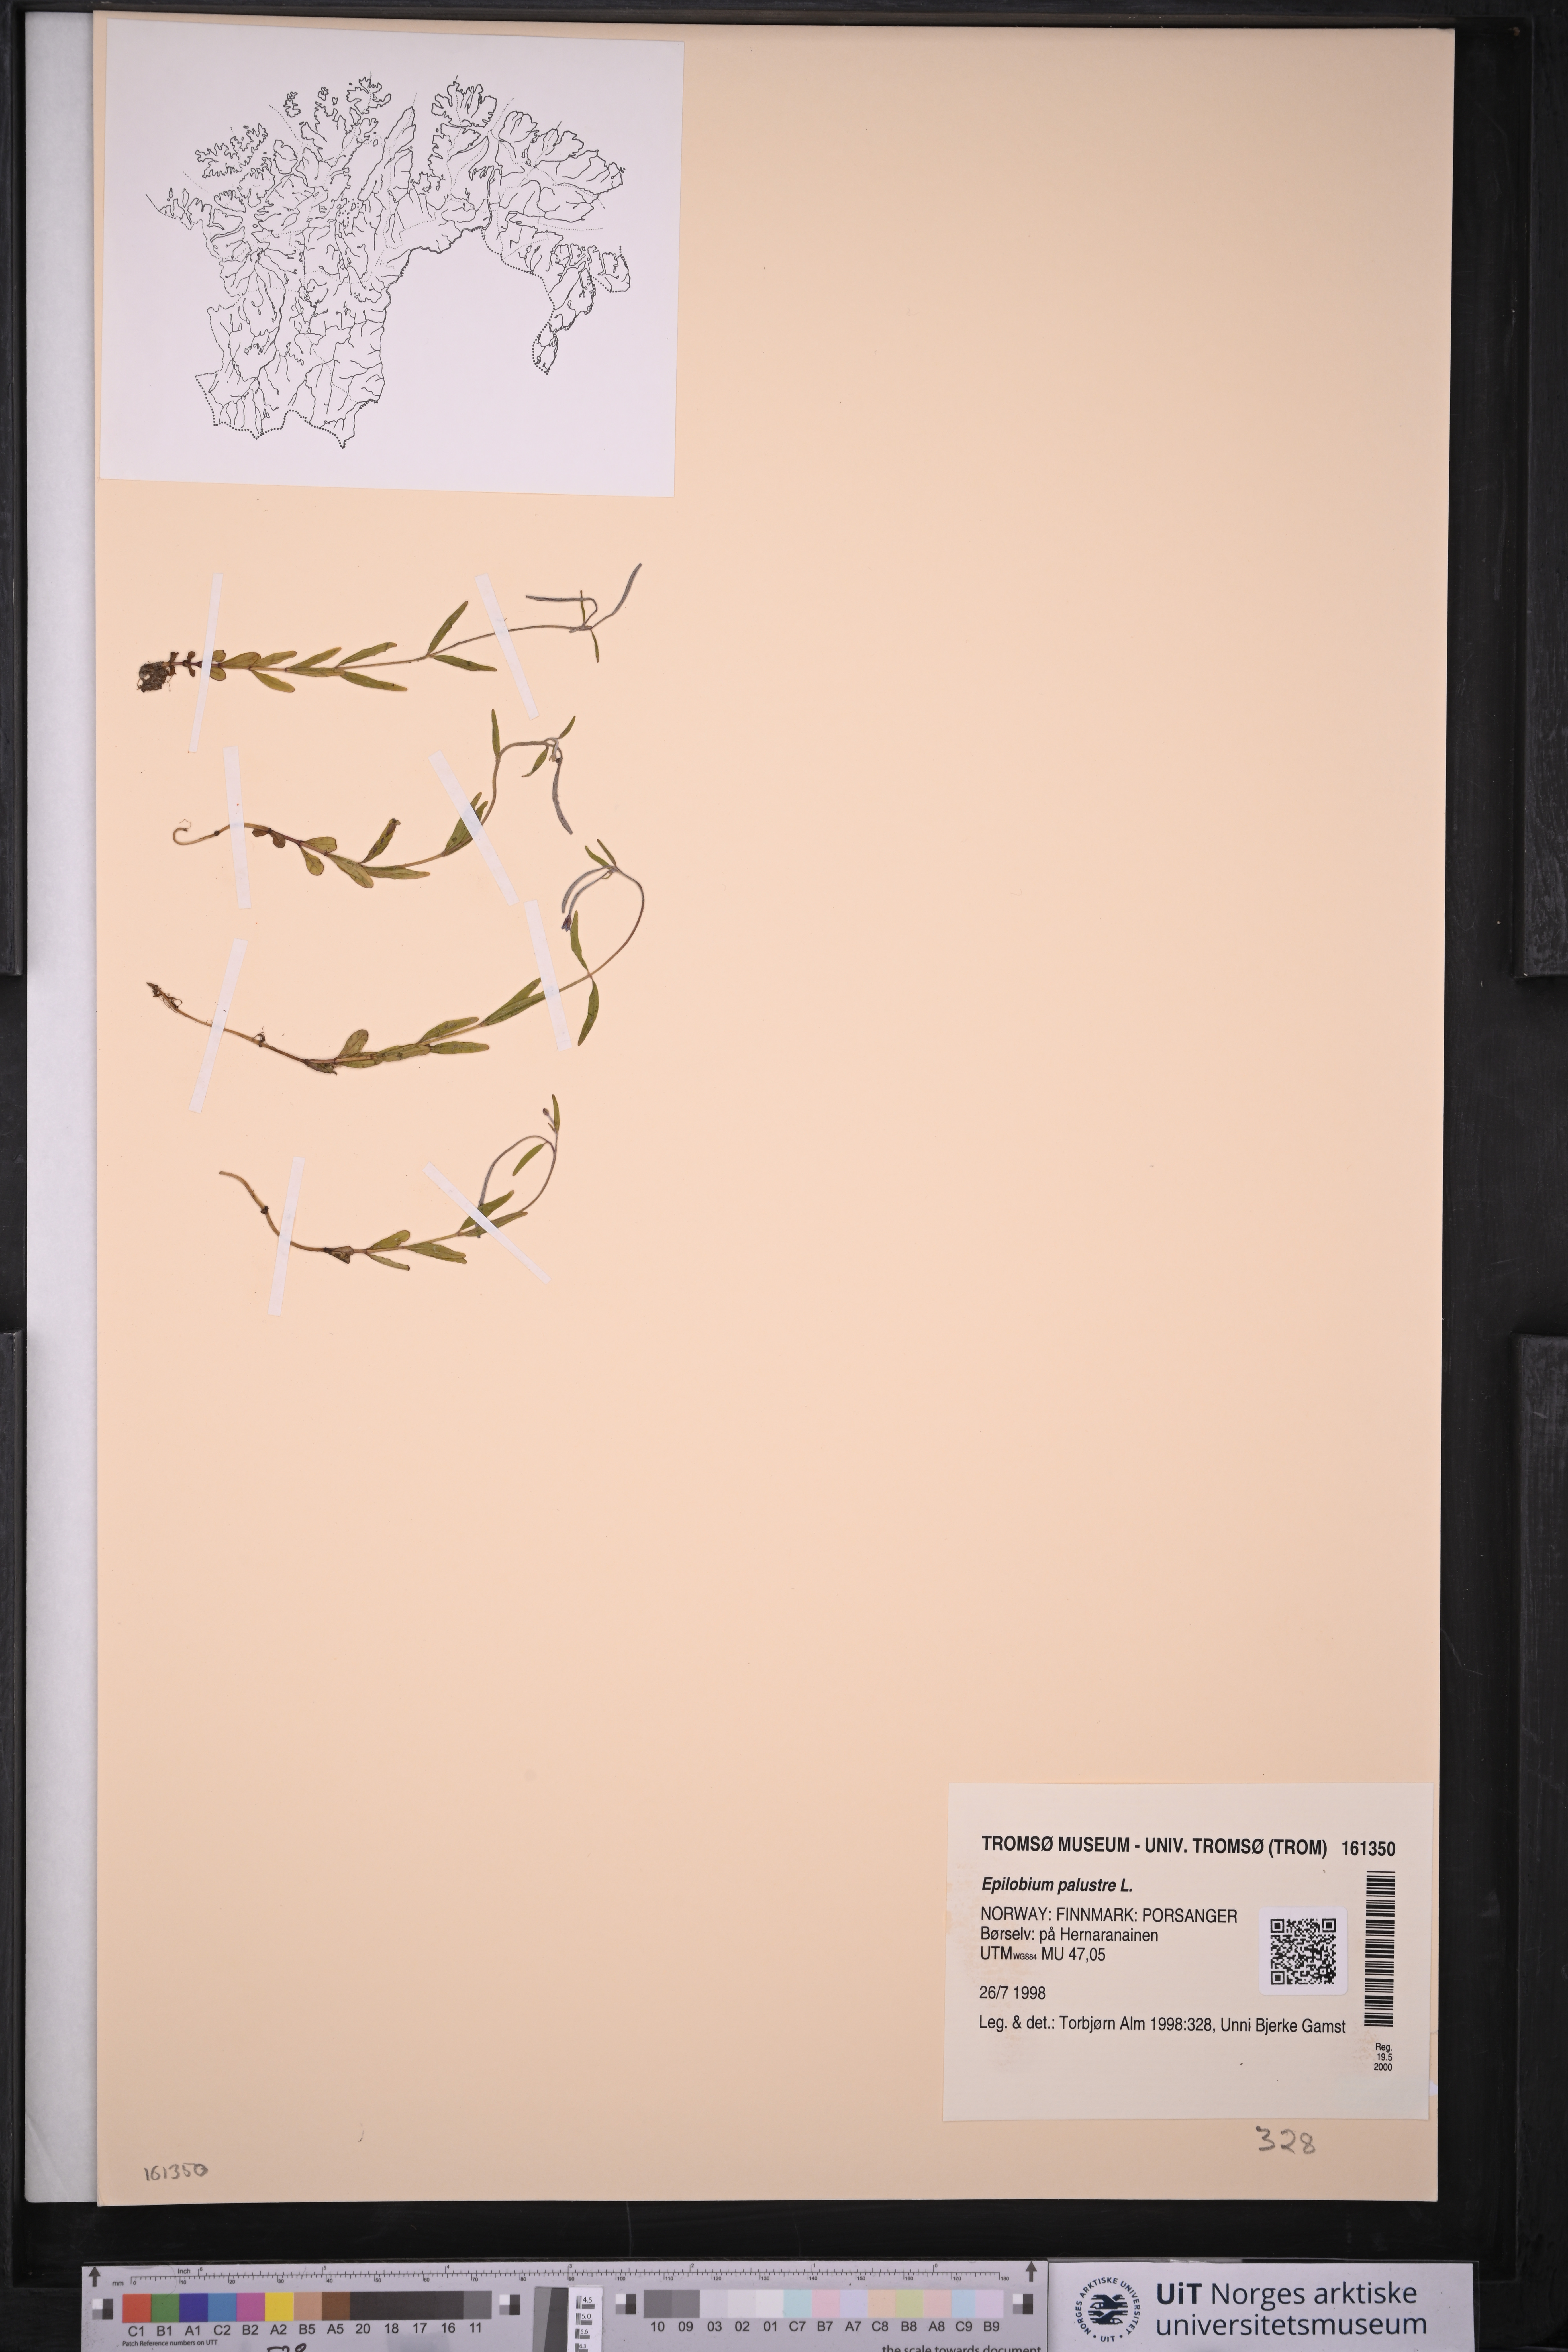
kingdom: Plantae
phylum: Tracheophyta
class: Magnoliopsida
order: Myrtales
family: Onagraceae
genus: Epilobium
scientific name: Epilobium palustre
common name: Marsh willowherb
